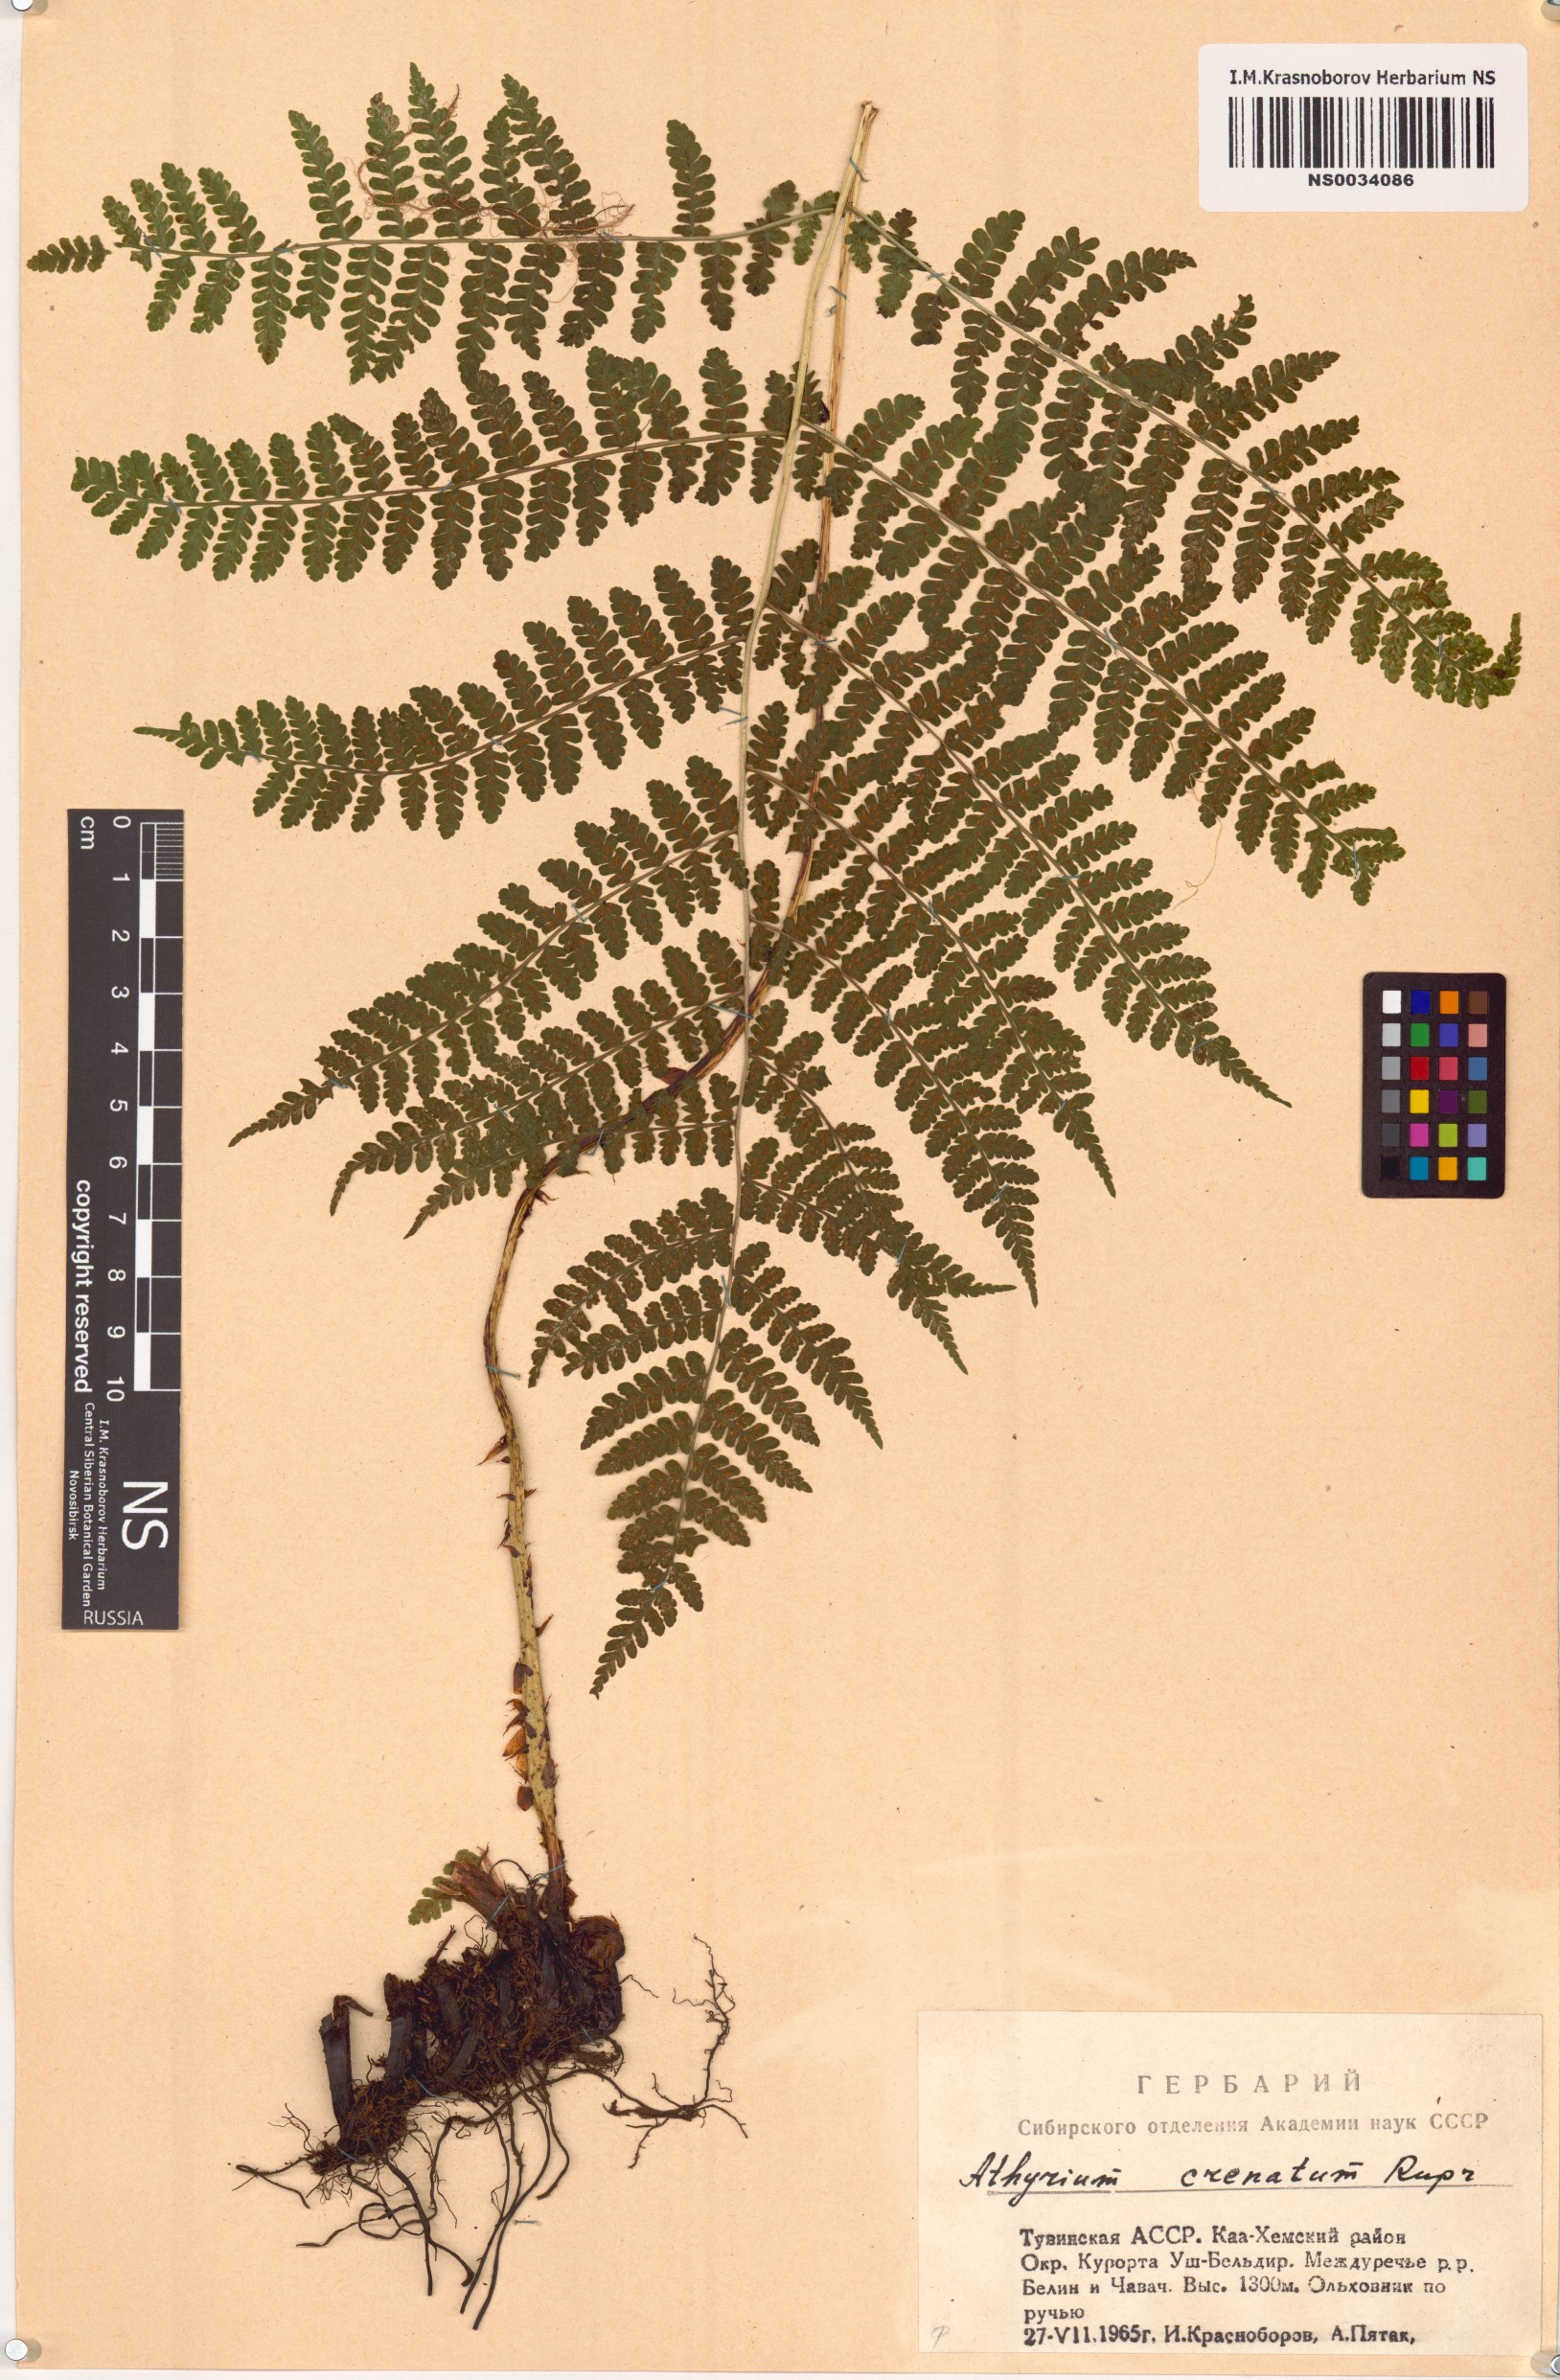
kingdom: Plantae
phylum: Tracheophyta
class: Polypodiopsida
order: Polypodiales
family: Athyriaceae
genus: Diplazium
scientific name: Diplazium sibiricum
